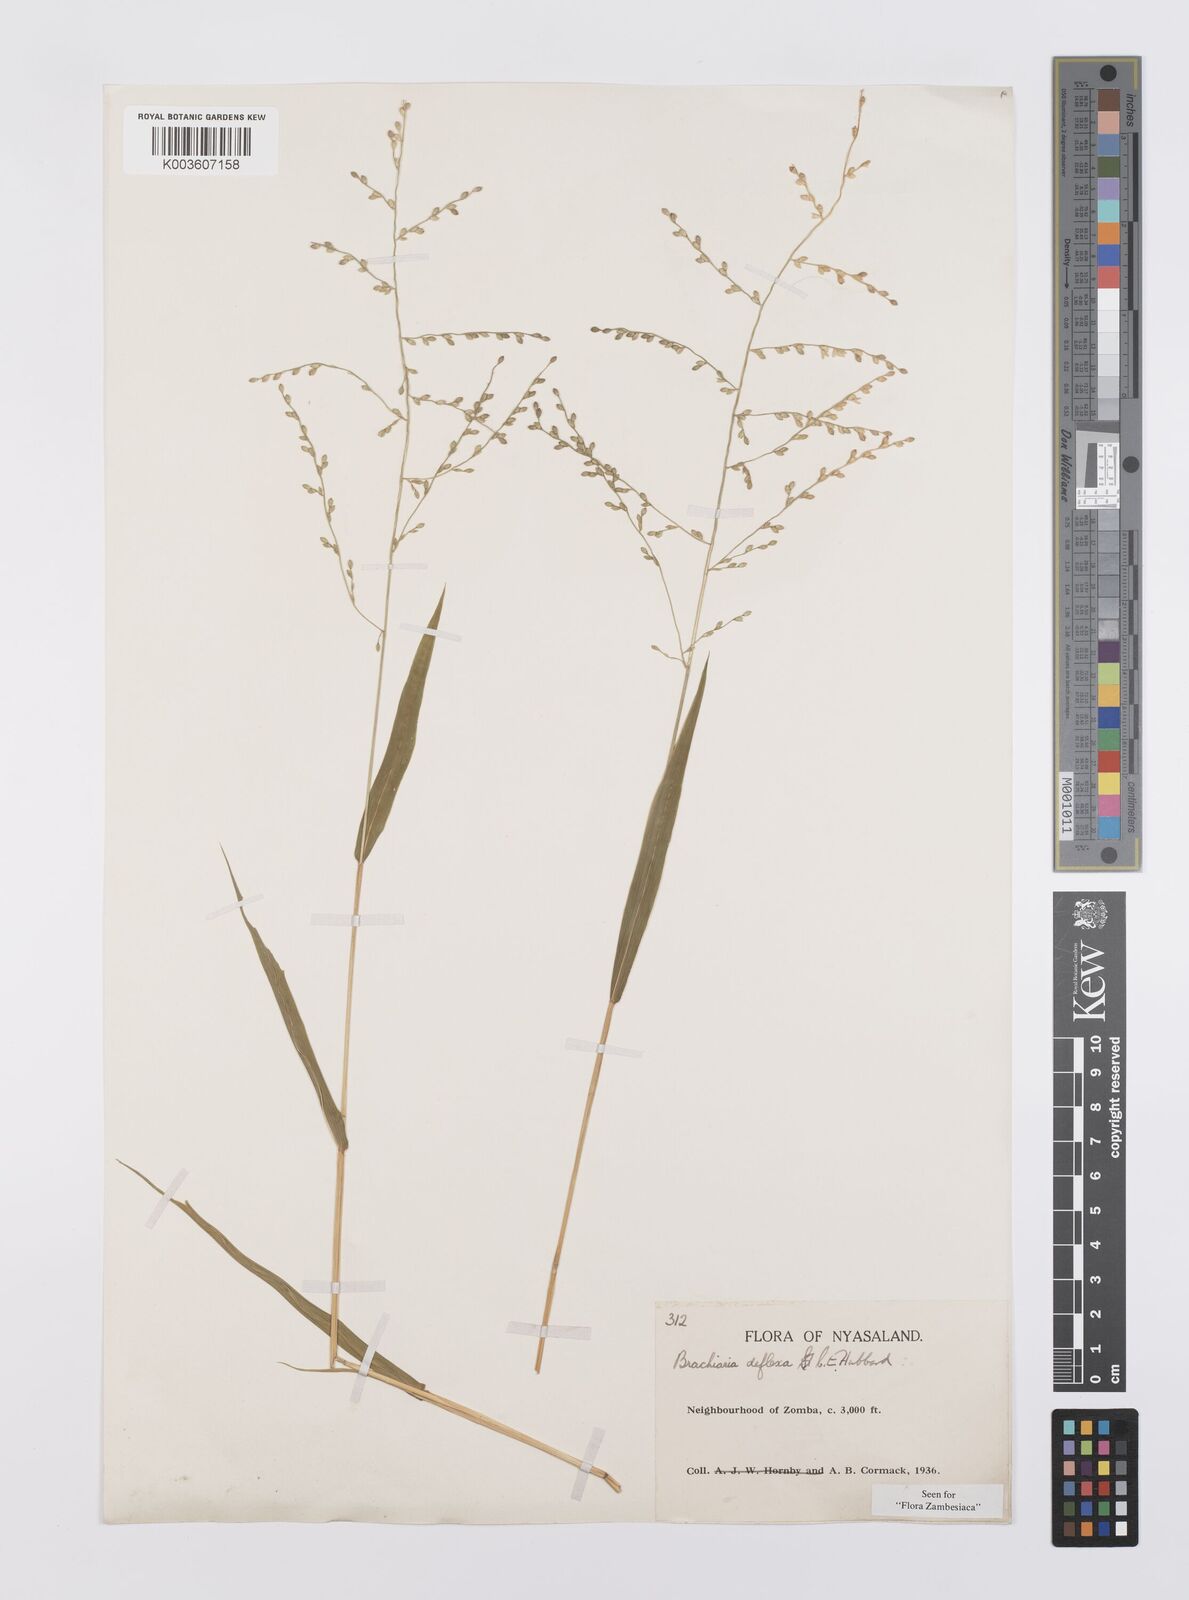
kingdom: Plantae
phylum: Tracheophyta
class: Liliopsida
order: Poales
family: Poaceae
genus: Urochloa
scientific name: Urochloa deflexa
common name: Guinea millet
